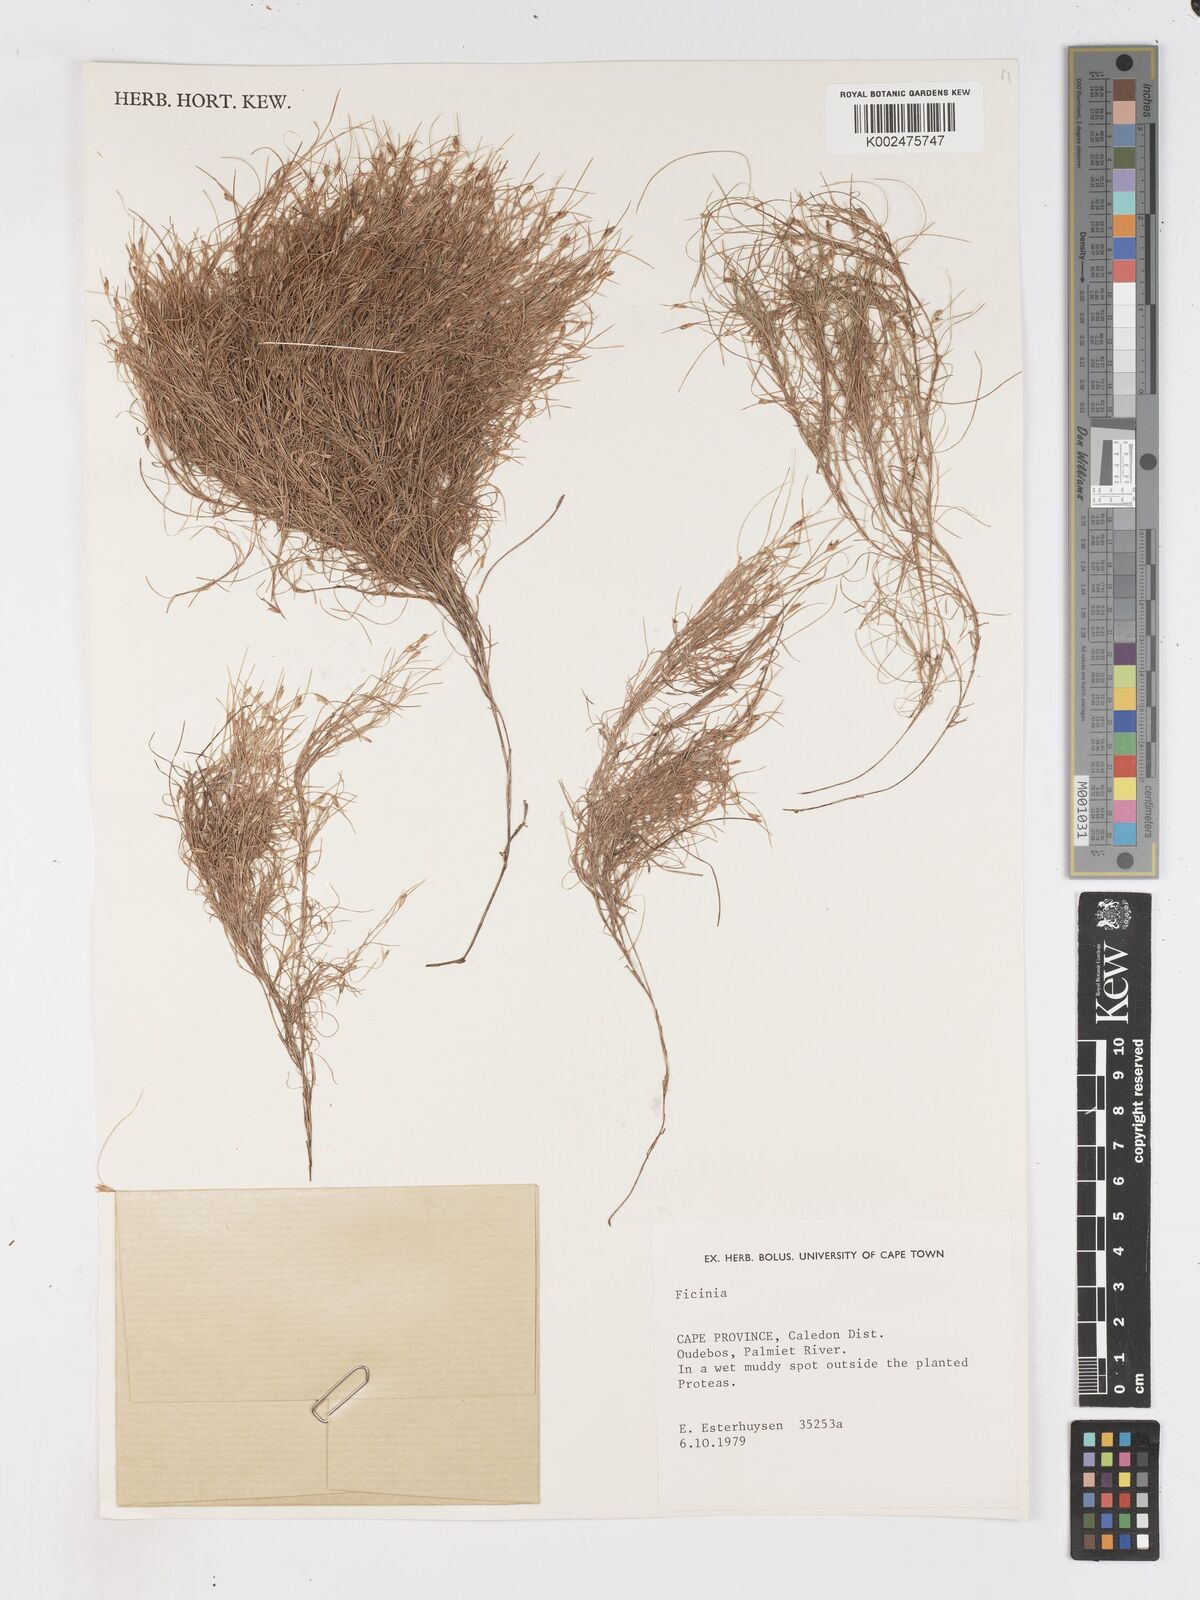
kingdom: Plantae
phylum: Tracheophyta
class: Liliopsida
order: Poales
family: Cyperaceae
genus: Ficinia
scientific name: Ficinia trichodes
